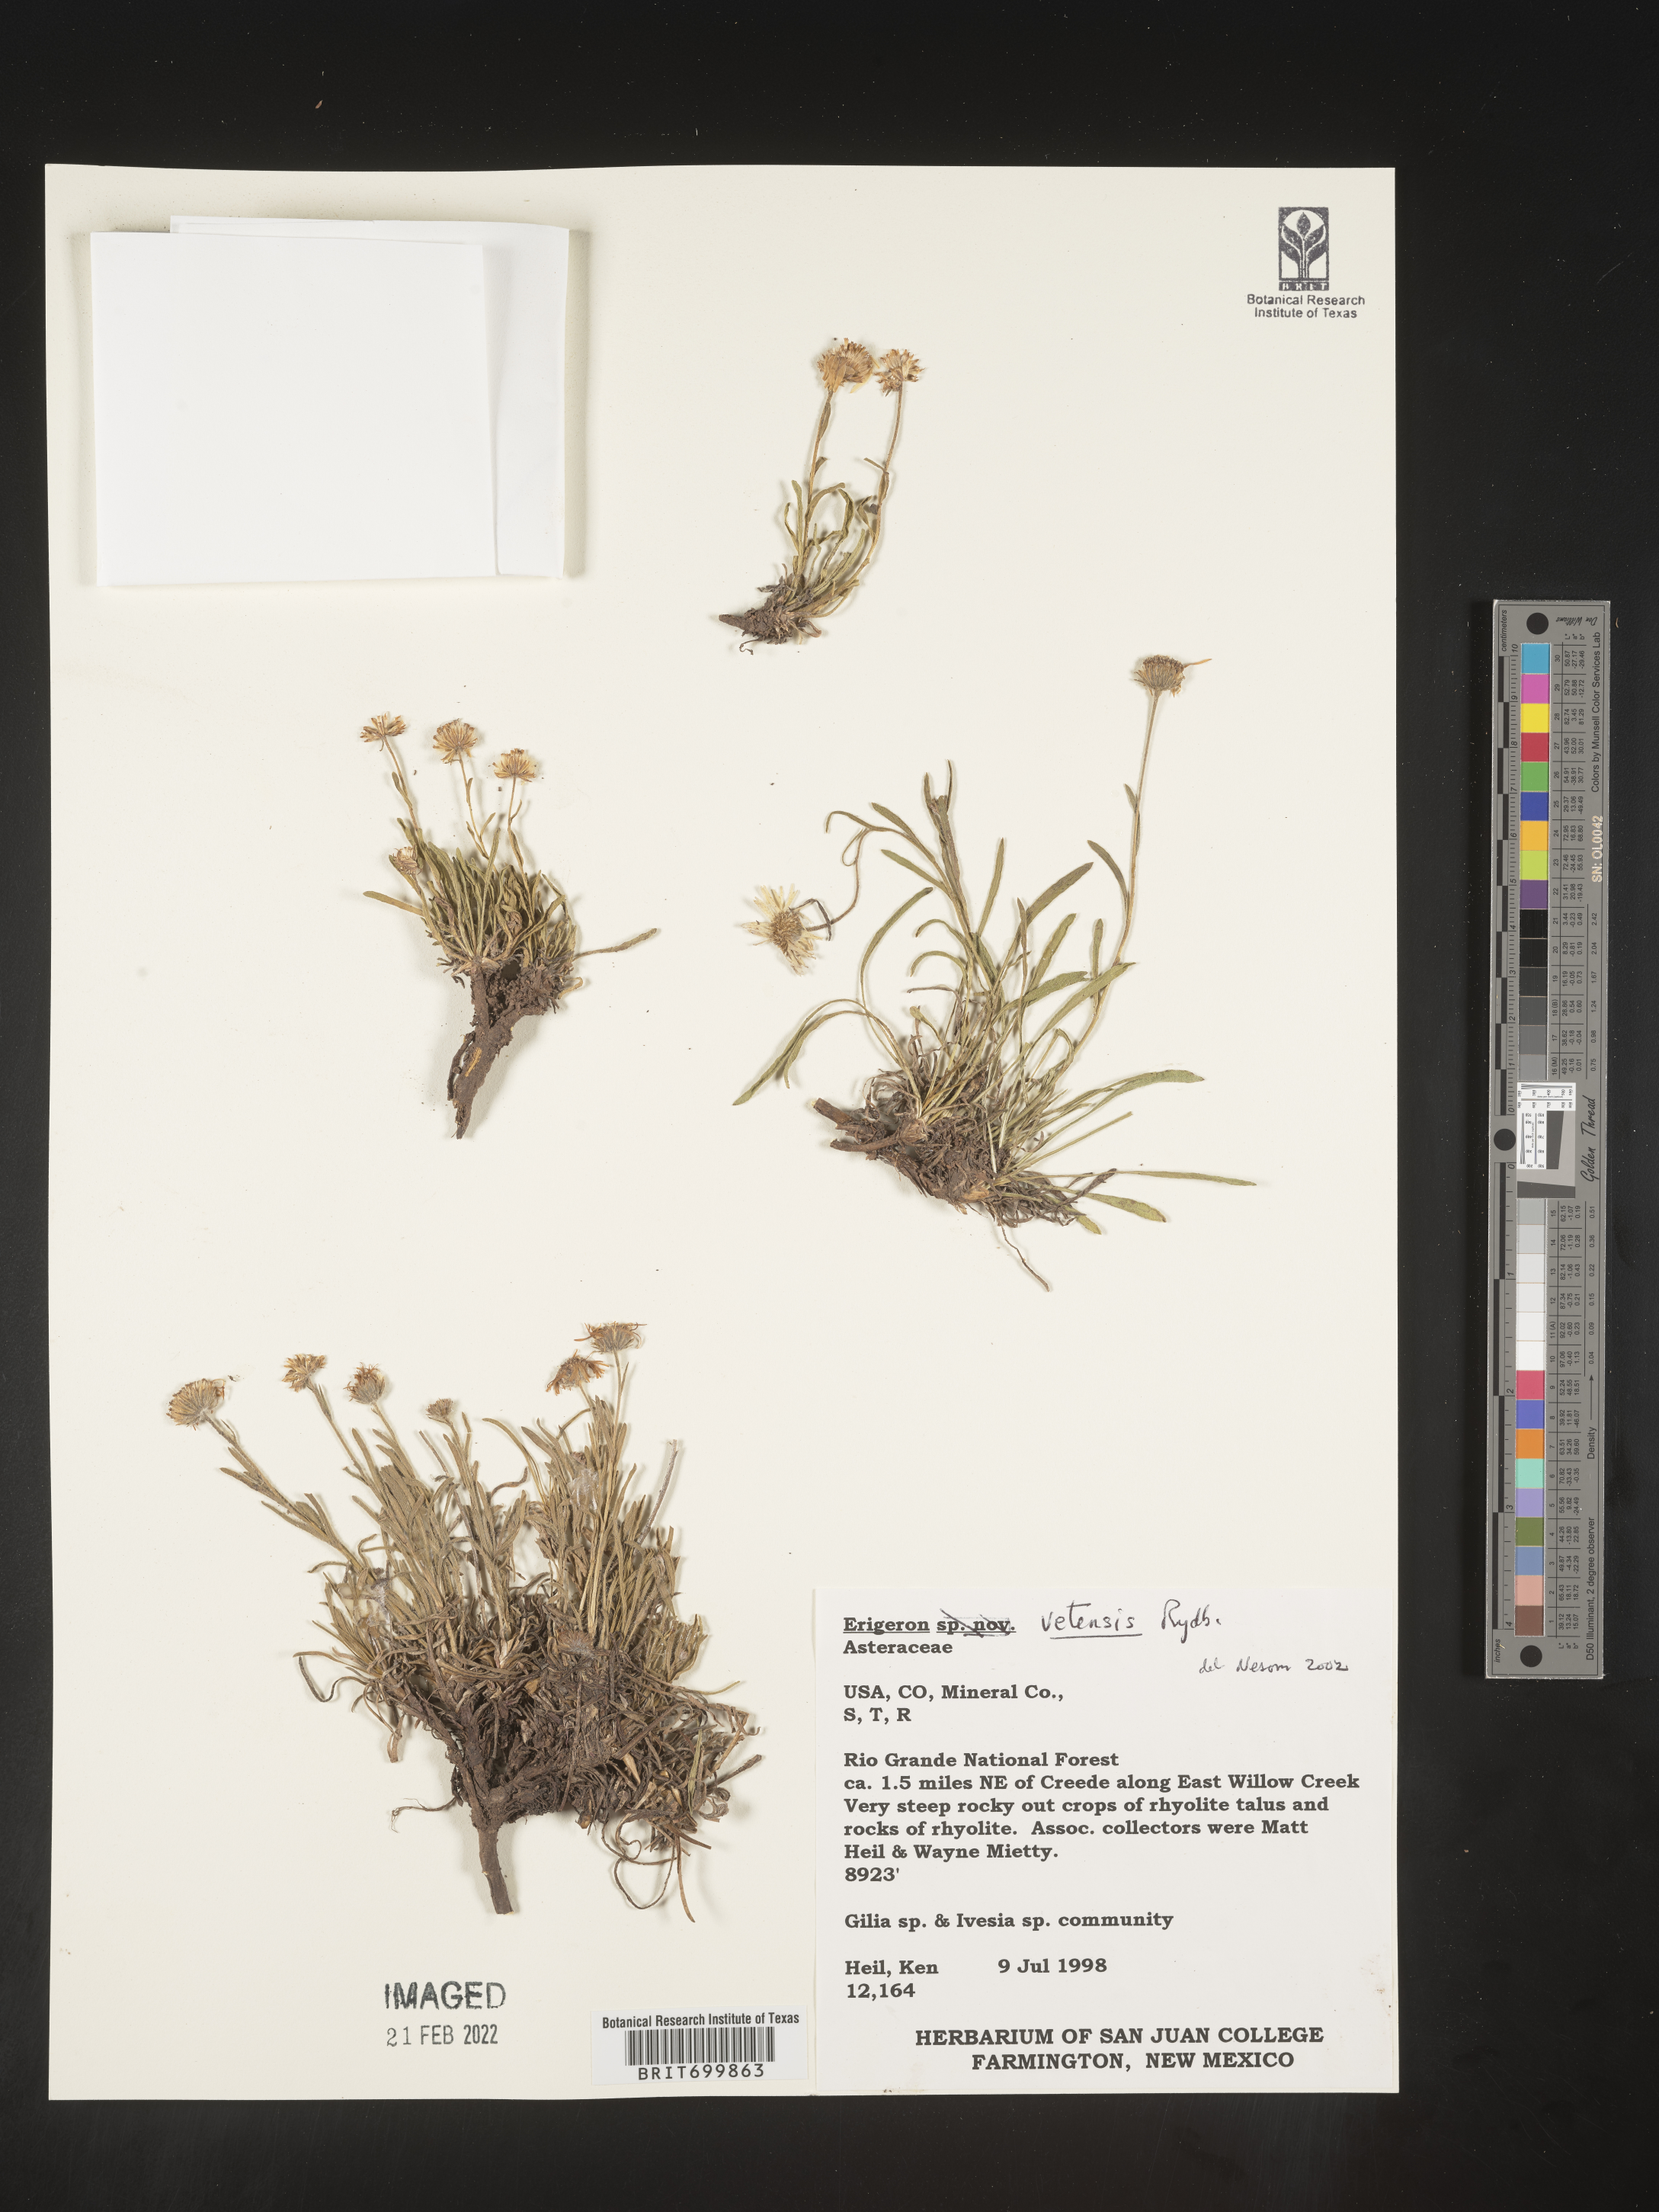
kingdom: Plantae
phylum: Tracheophyta
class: Magnoliopsida
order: Asterales
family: Asteraceae
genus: Erigeron
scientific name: Erigeron vetensis
